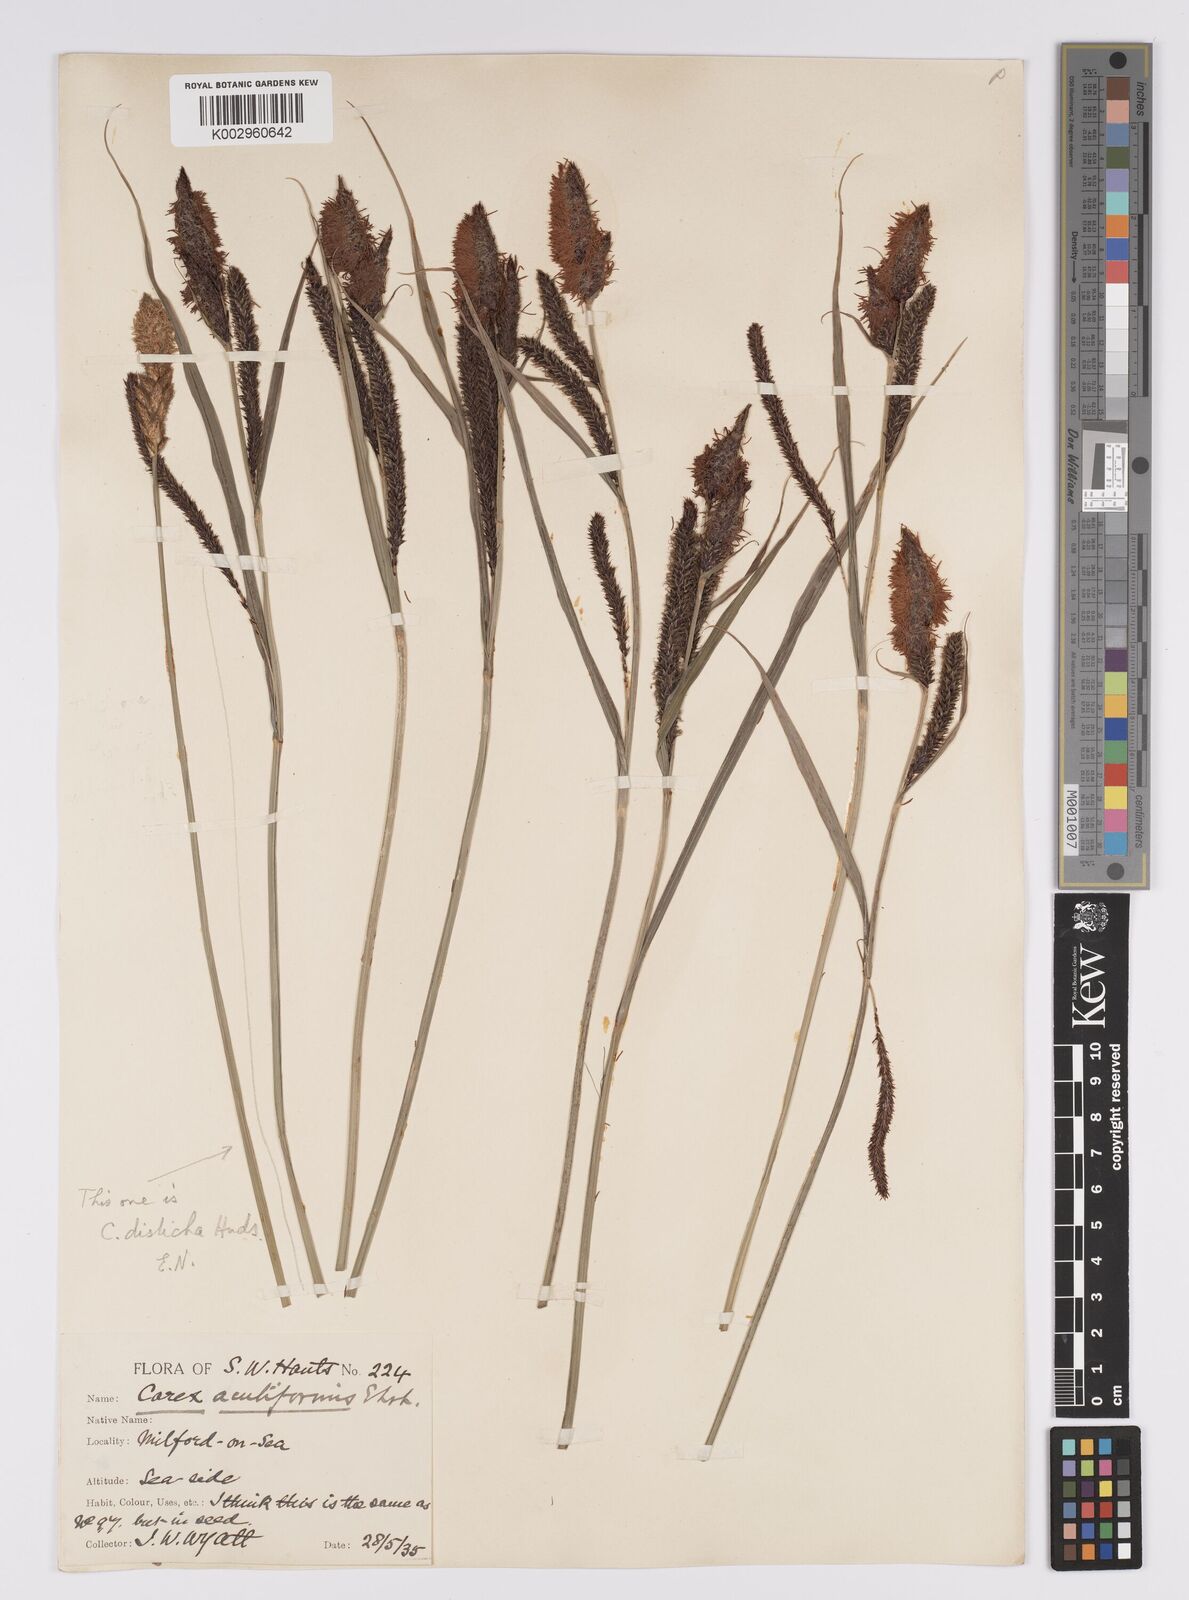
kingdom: Plantae
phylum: Tracheophyta
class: Liliopsida
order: Poales
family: Cyperaceae
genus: Carex
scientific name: Carex acutiformis
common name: Lesser pond-sedge
